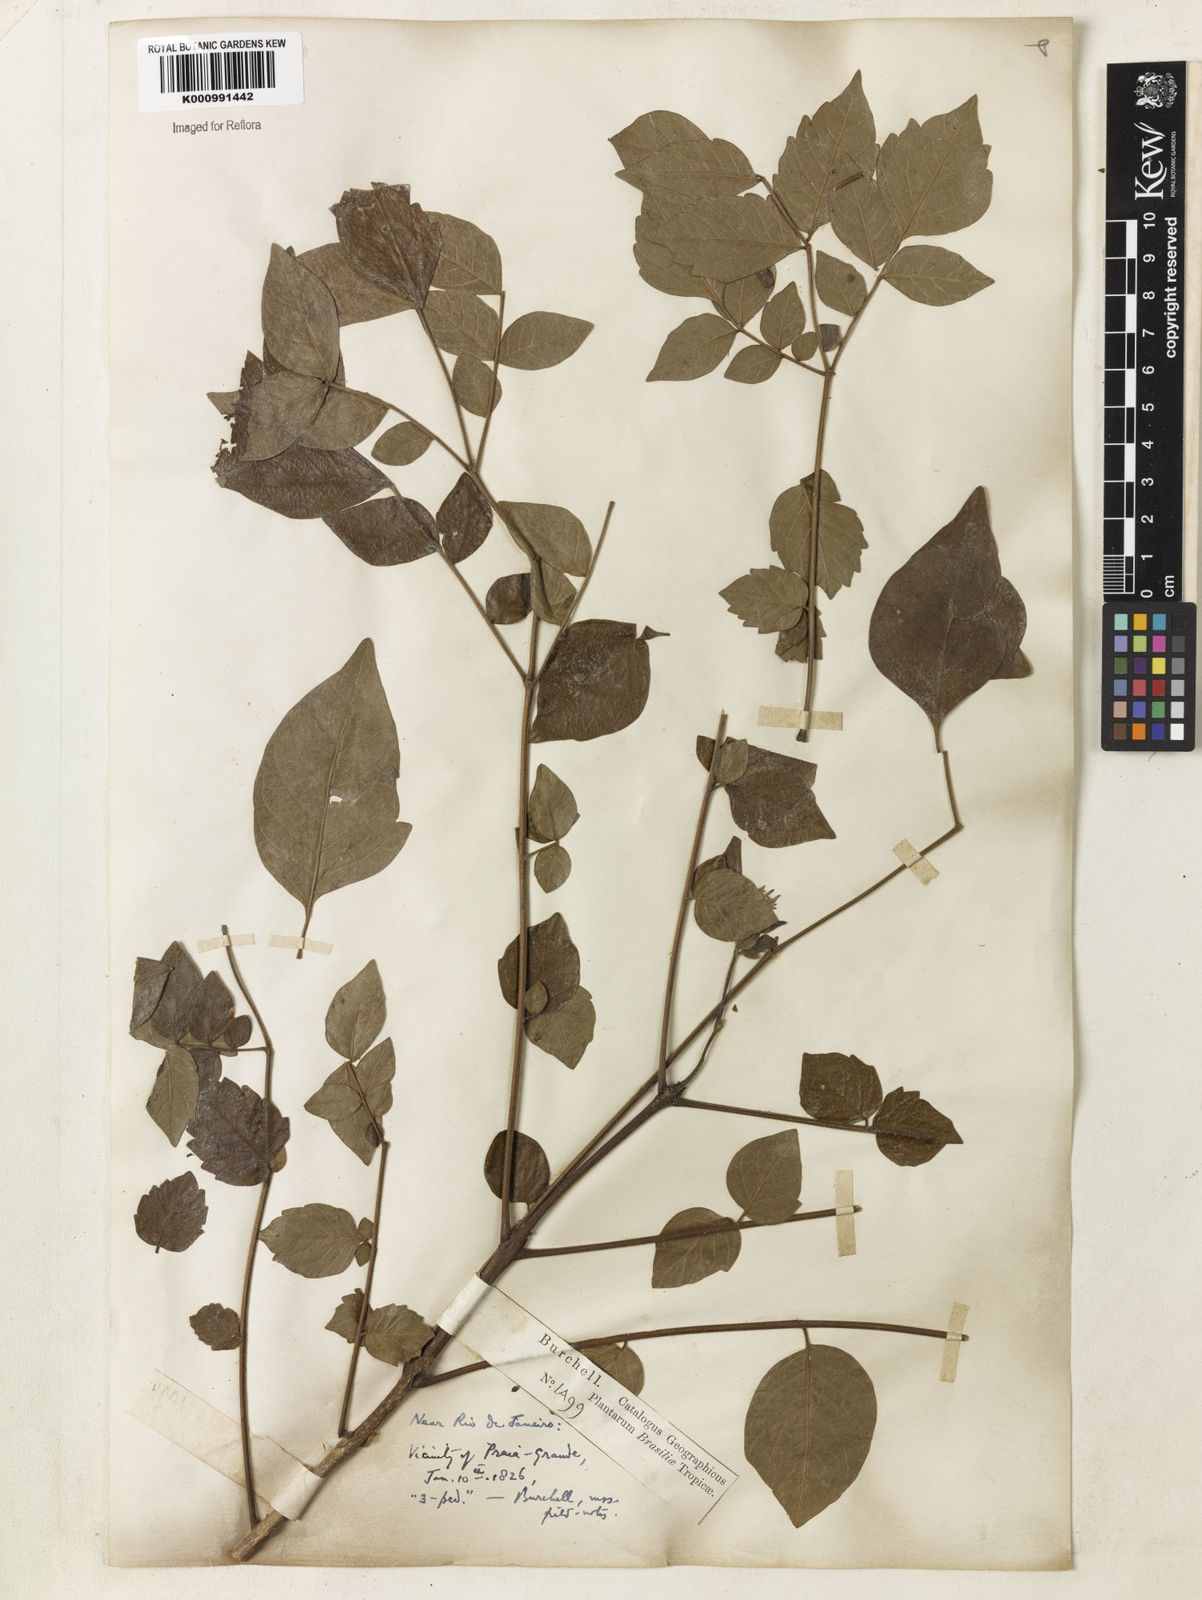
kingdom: Plantae
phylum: Tracheophyta
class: Magnoliopsida
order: Lamiales
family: Bignoniaceae
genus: Jacaranda
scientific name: Jacaranda jasminoides
